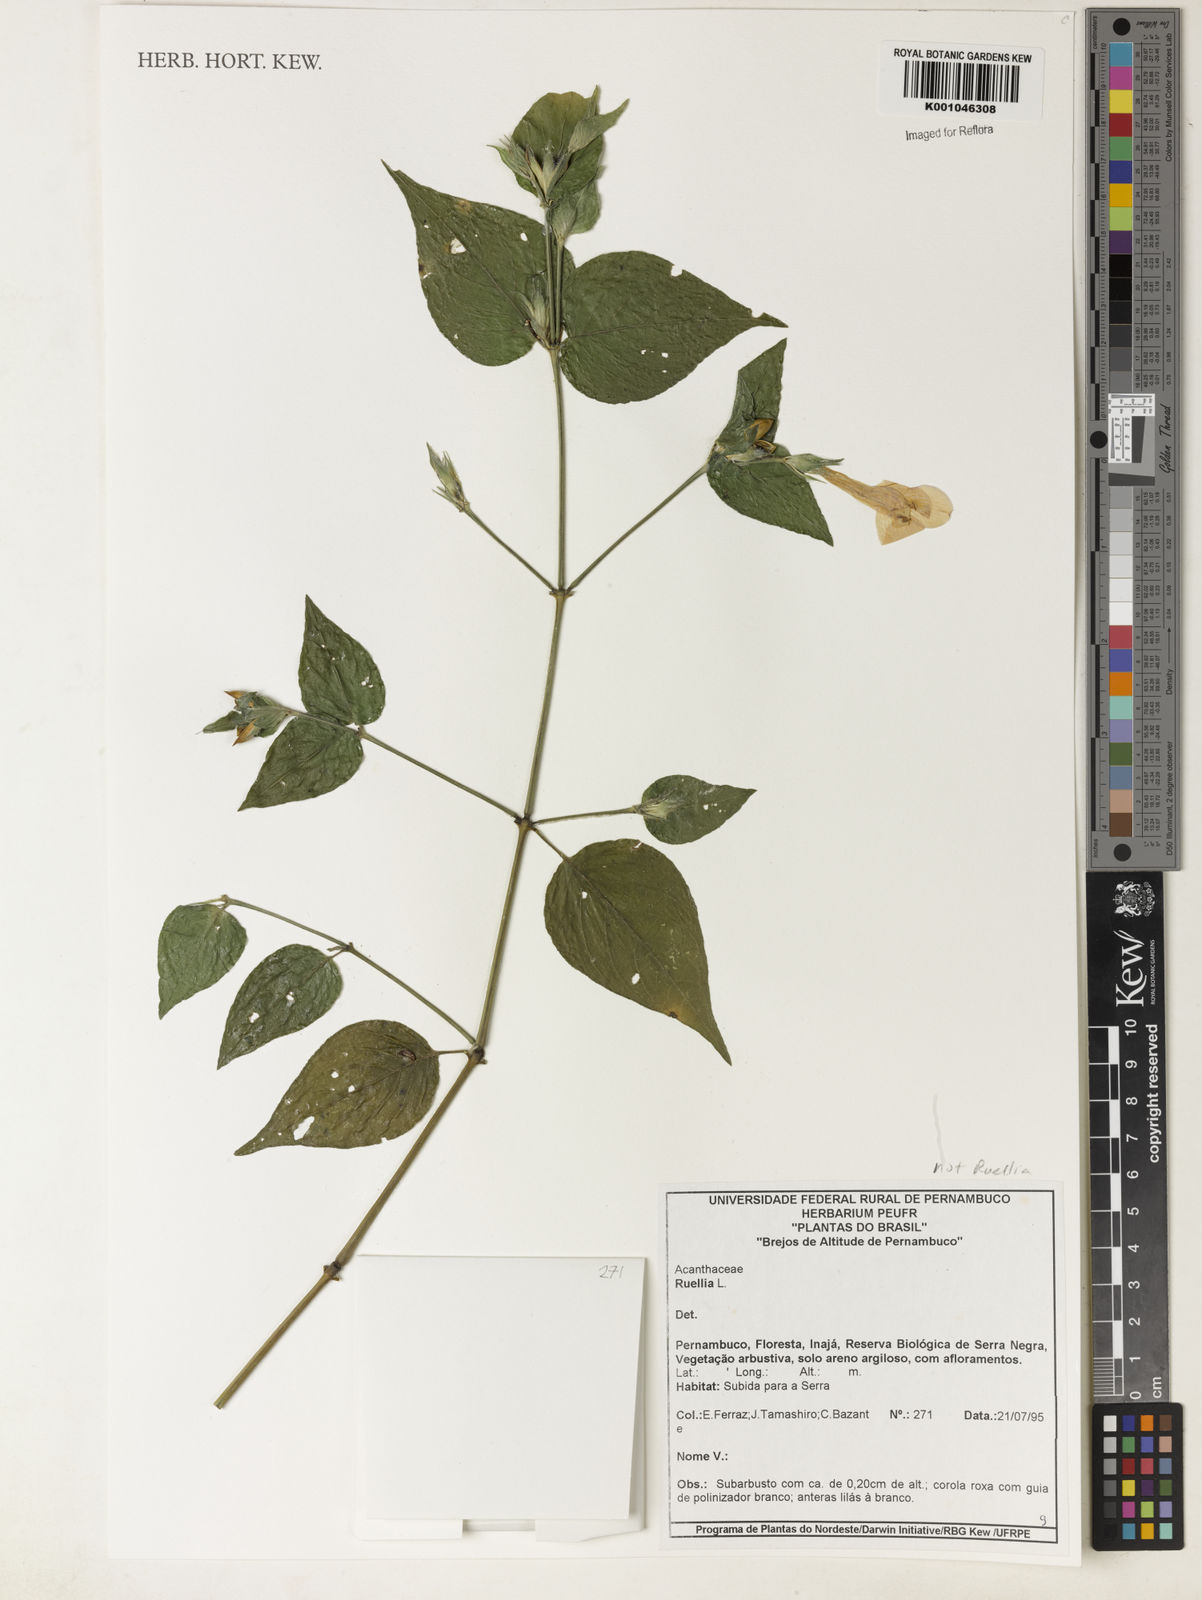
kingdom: Plantae
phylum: Tracheophyta
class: Magnoliopsida
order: Lamiales
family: Acanthaceae
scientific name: Acanthaceae
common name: Acanthaceae
